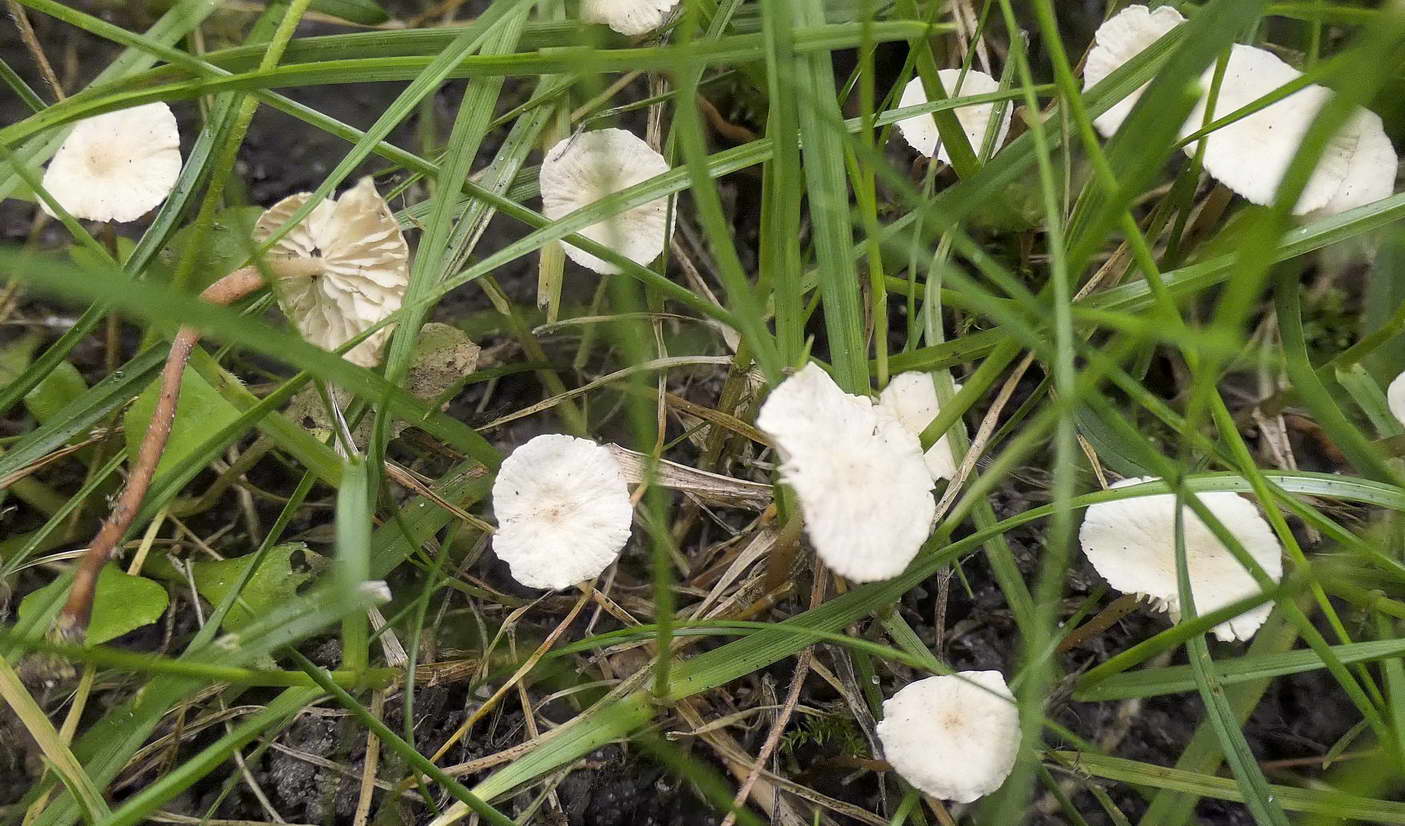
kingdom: Fungi
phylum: Basidiomycota
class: Agaricomycetes
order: Agaricales
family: Omphalotaceae
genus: Collybiopsis
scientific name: Collybiopsis vaillantii
